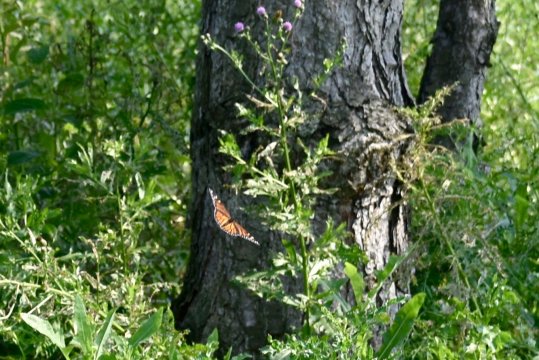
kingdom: Animalia
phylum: Arthropoda
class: Insecta
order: Lepidoptera
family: Nymphalidae
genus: Danaus
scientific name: Danaus plexippus
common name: Monarch
